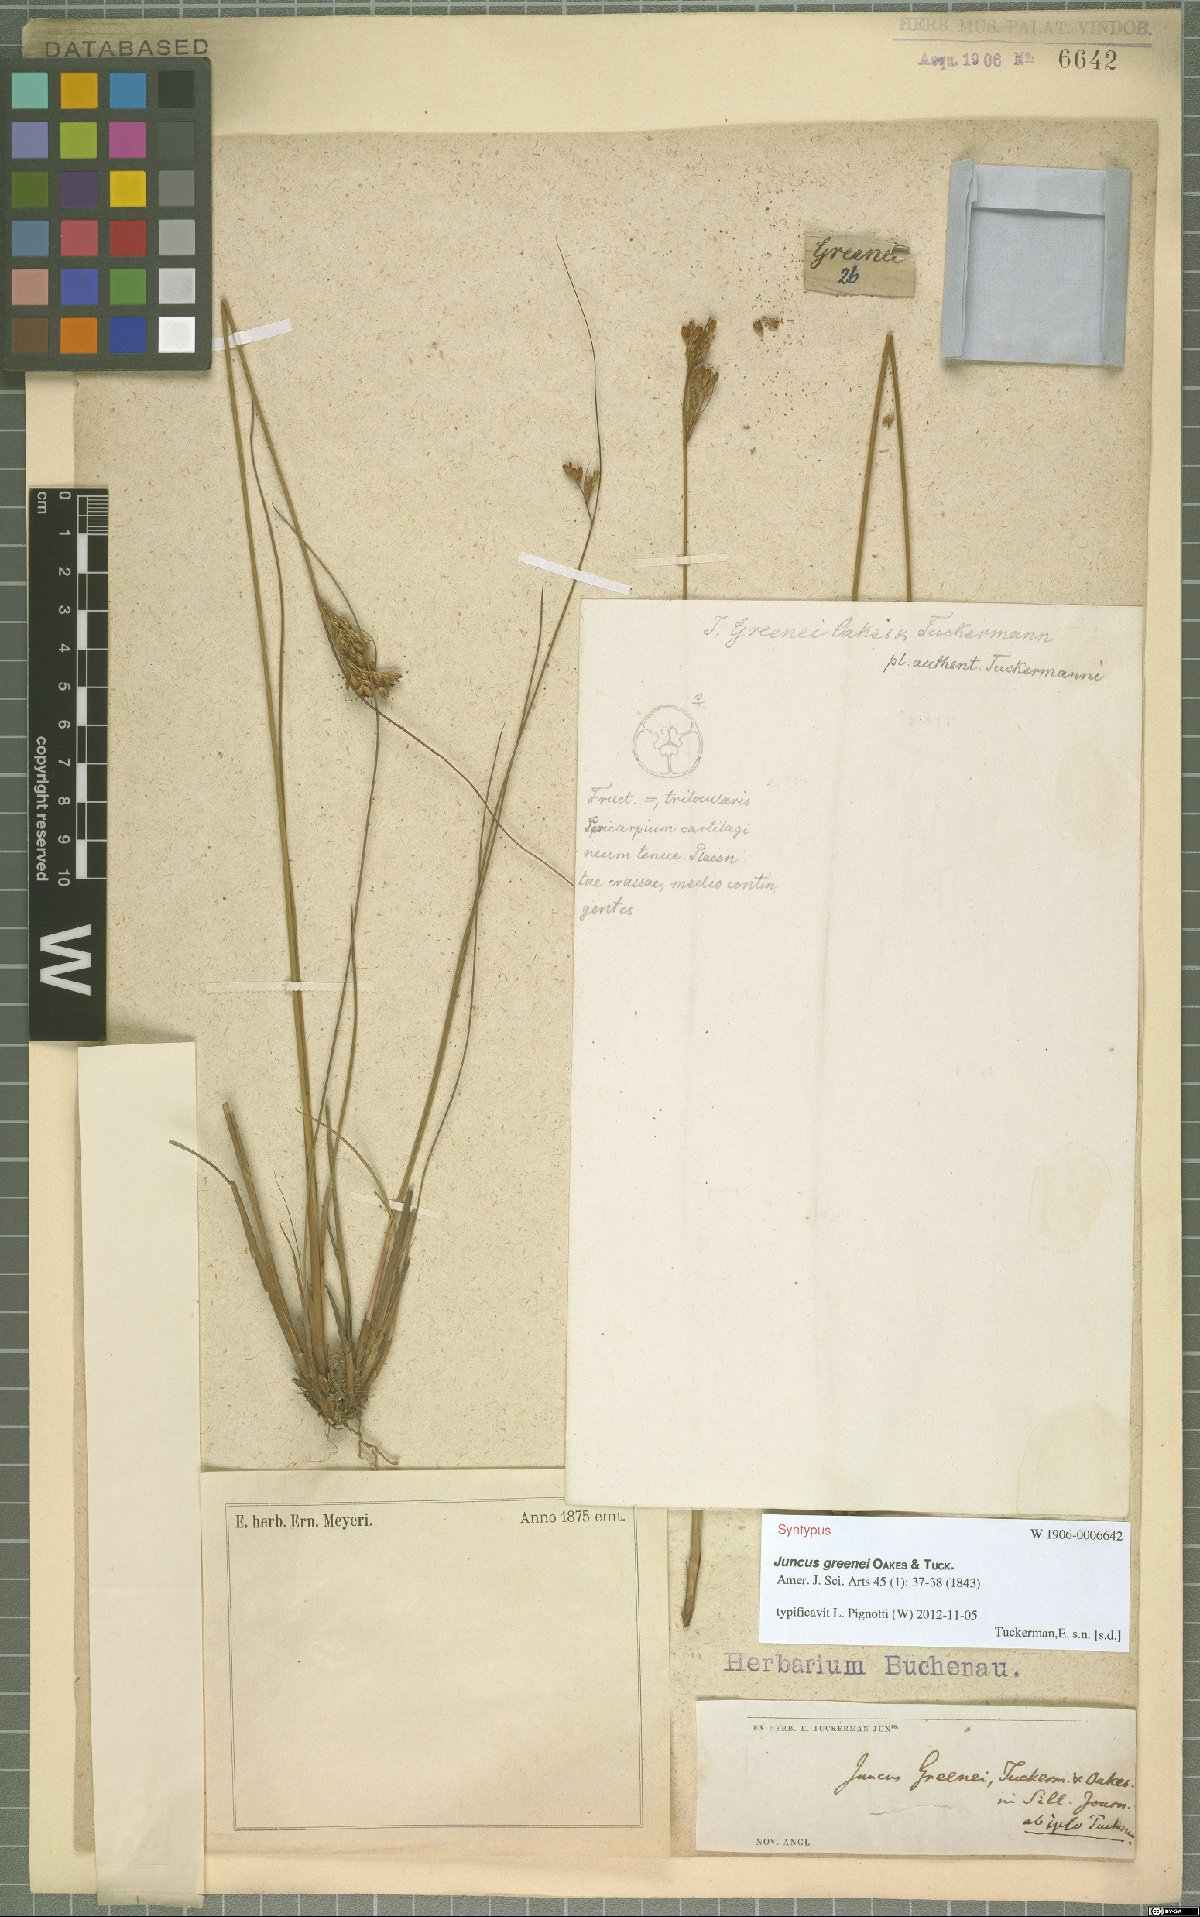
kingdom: Plantae
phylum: Tracheophyta
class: Liliopsida
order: Poales
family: Juncaceae
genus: Juncus
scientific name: Juncus greenei
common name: Greene's rush
